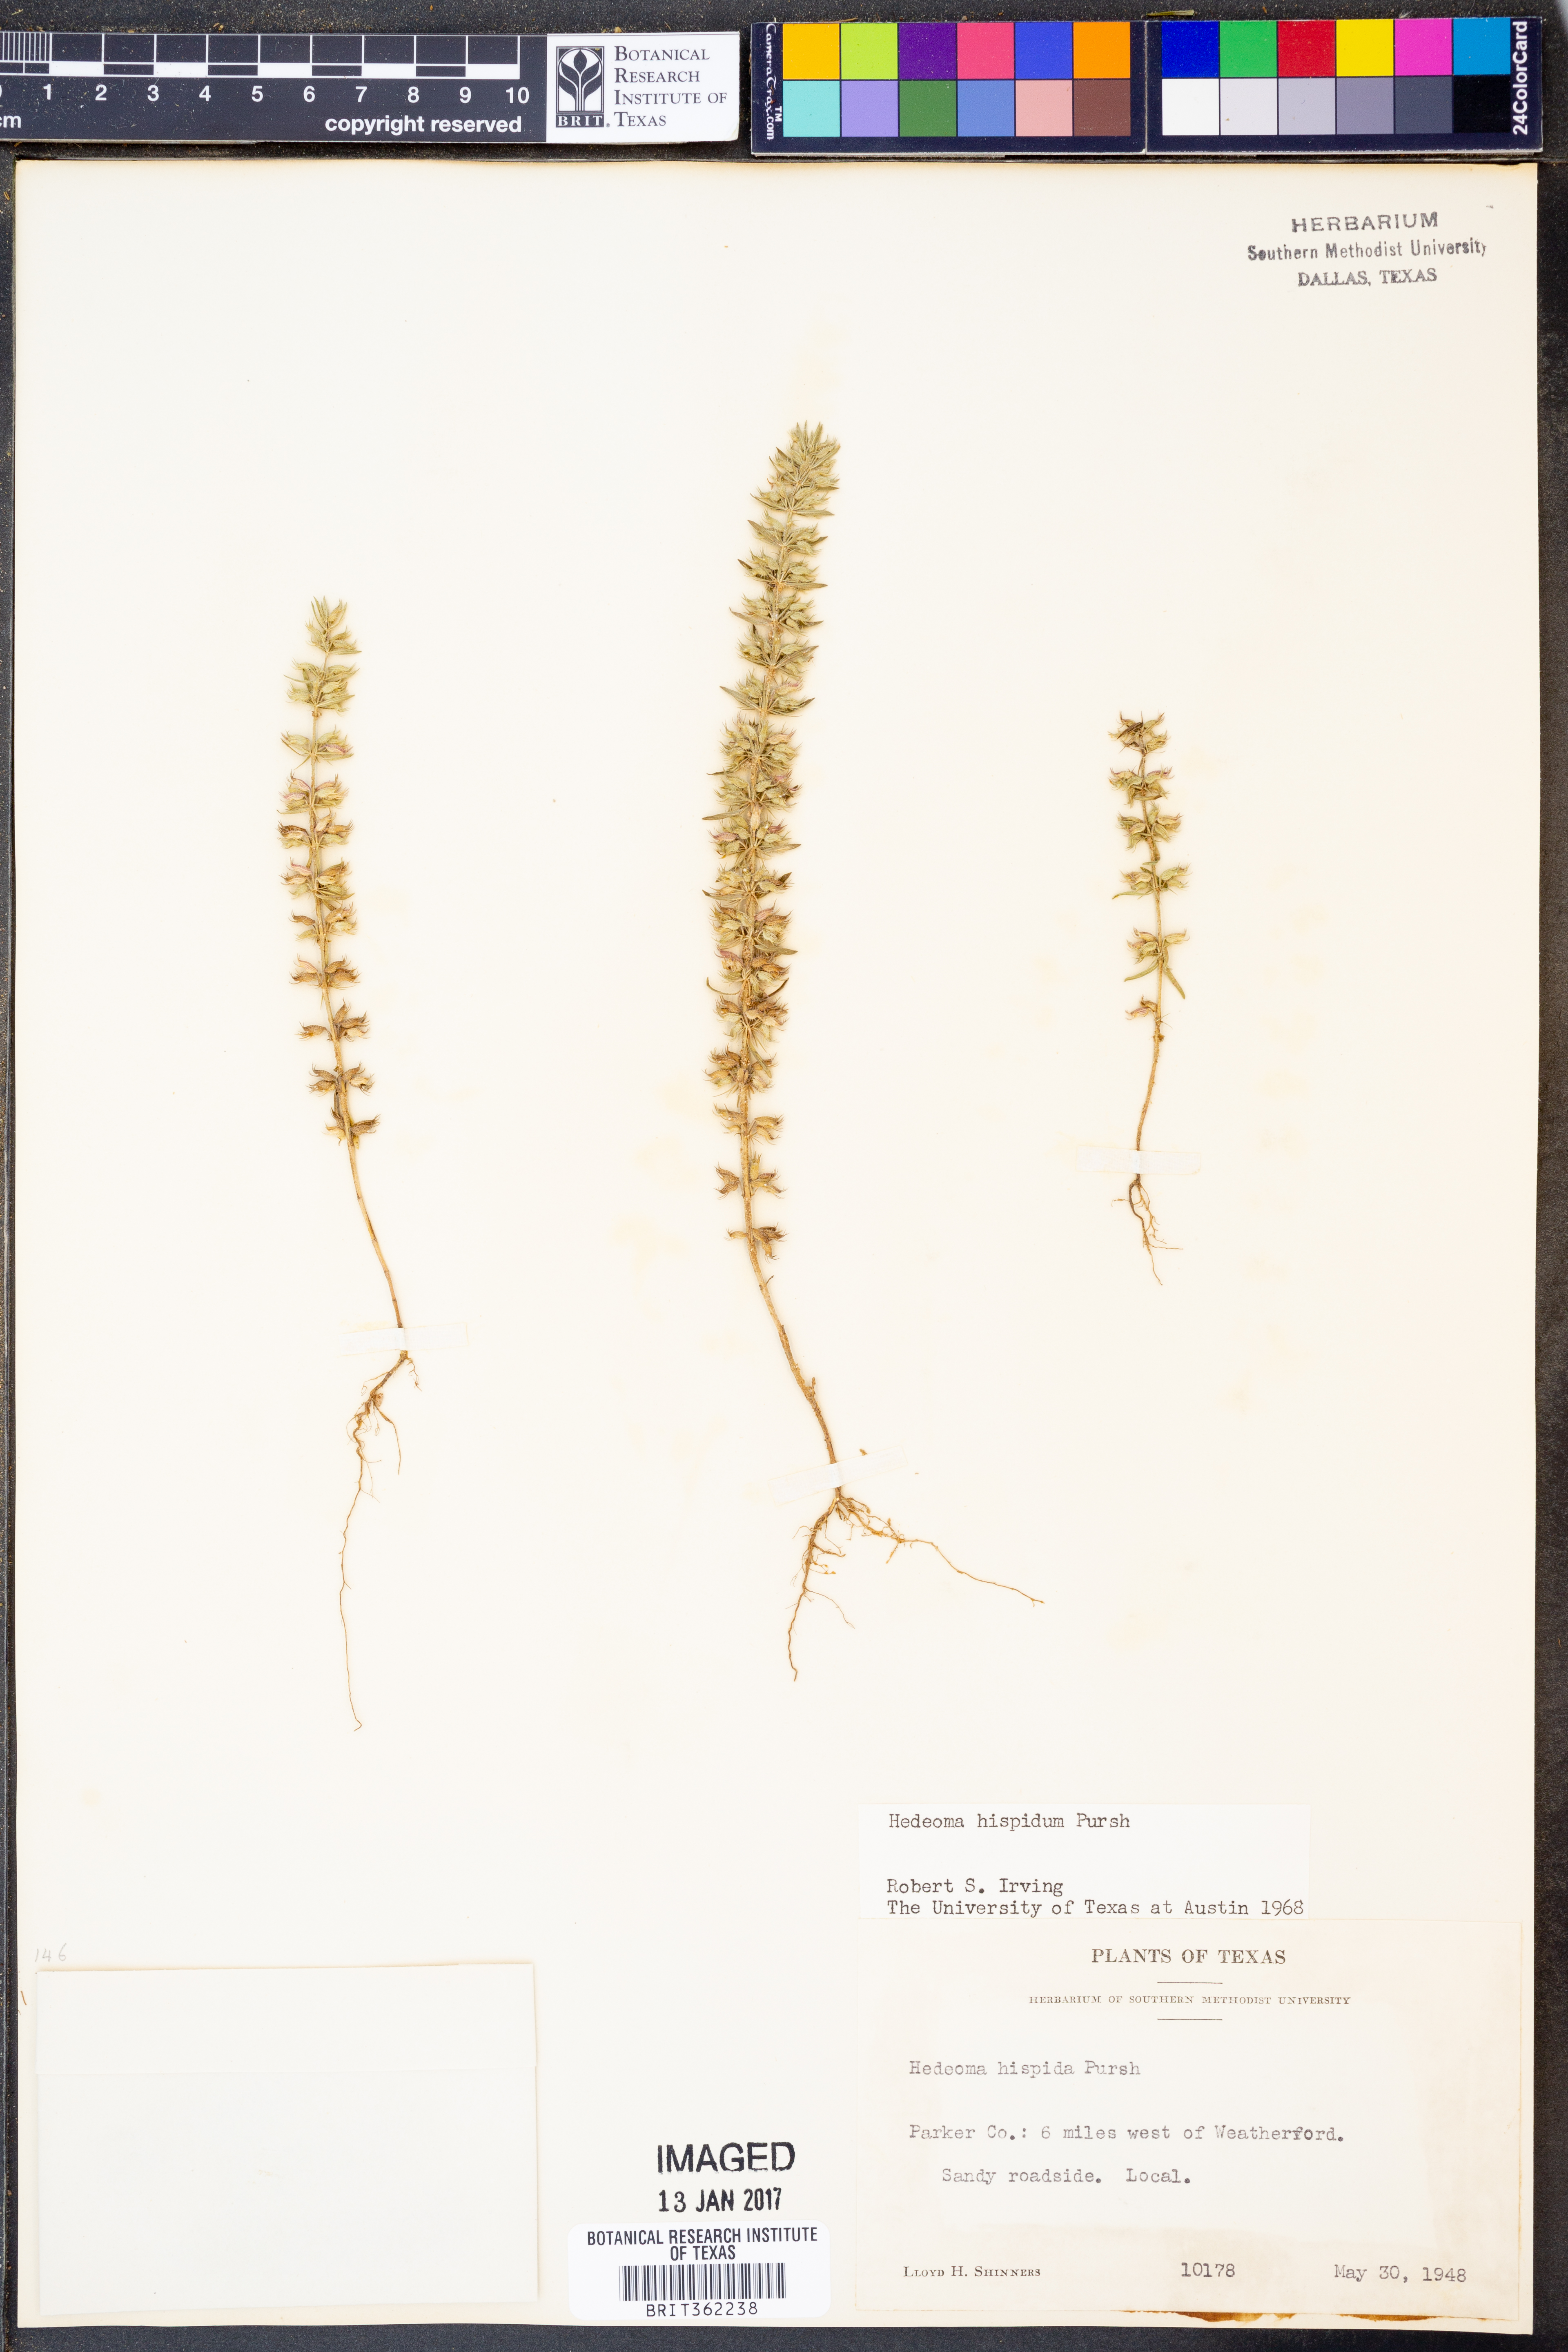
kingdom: Plantae
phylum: Tracheophyta
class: Magnoliopsida
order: Lamiales
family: Lamiaceae
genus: Hedeoma
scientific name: Hedeoma hispida
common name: Mock pennyroyal
